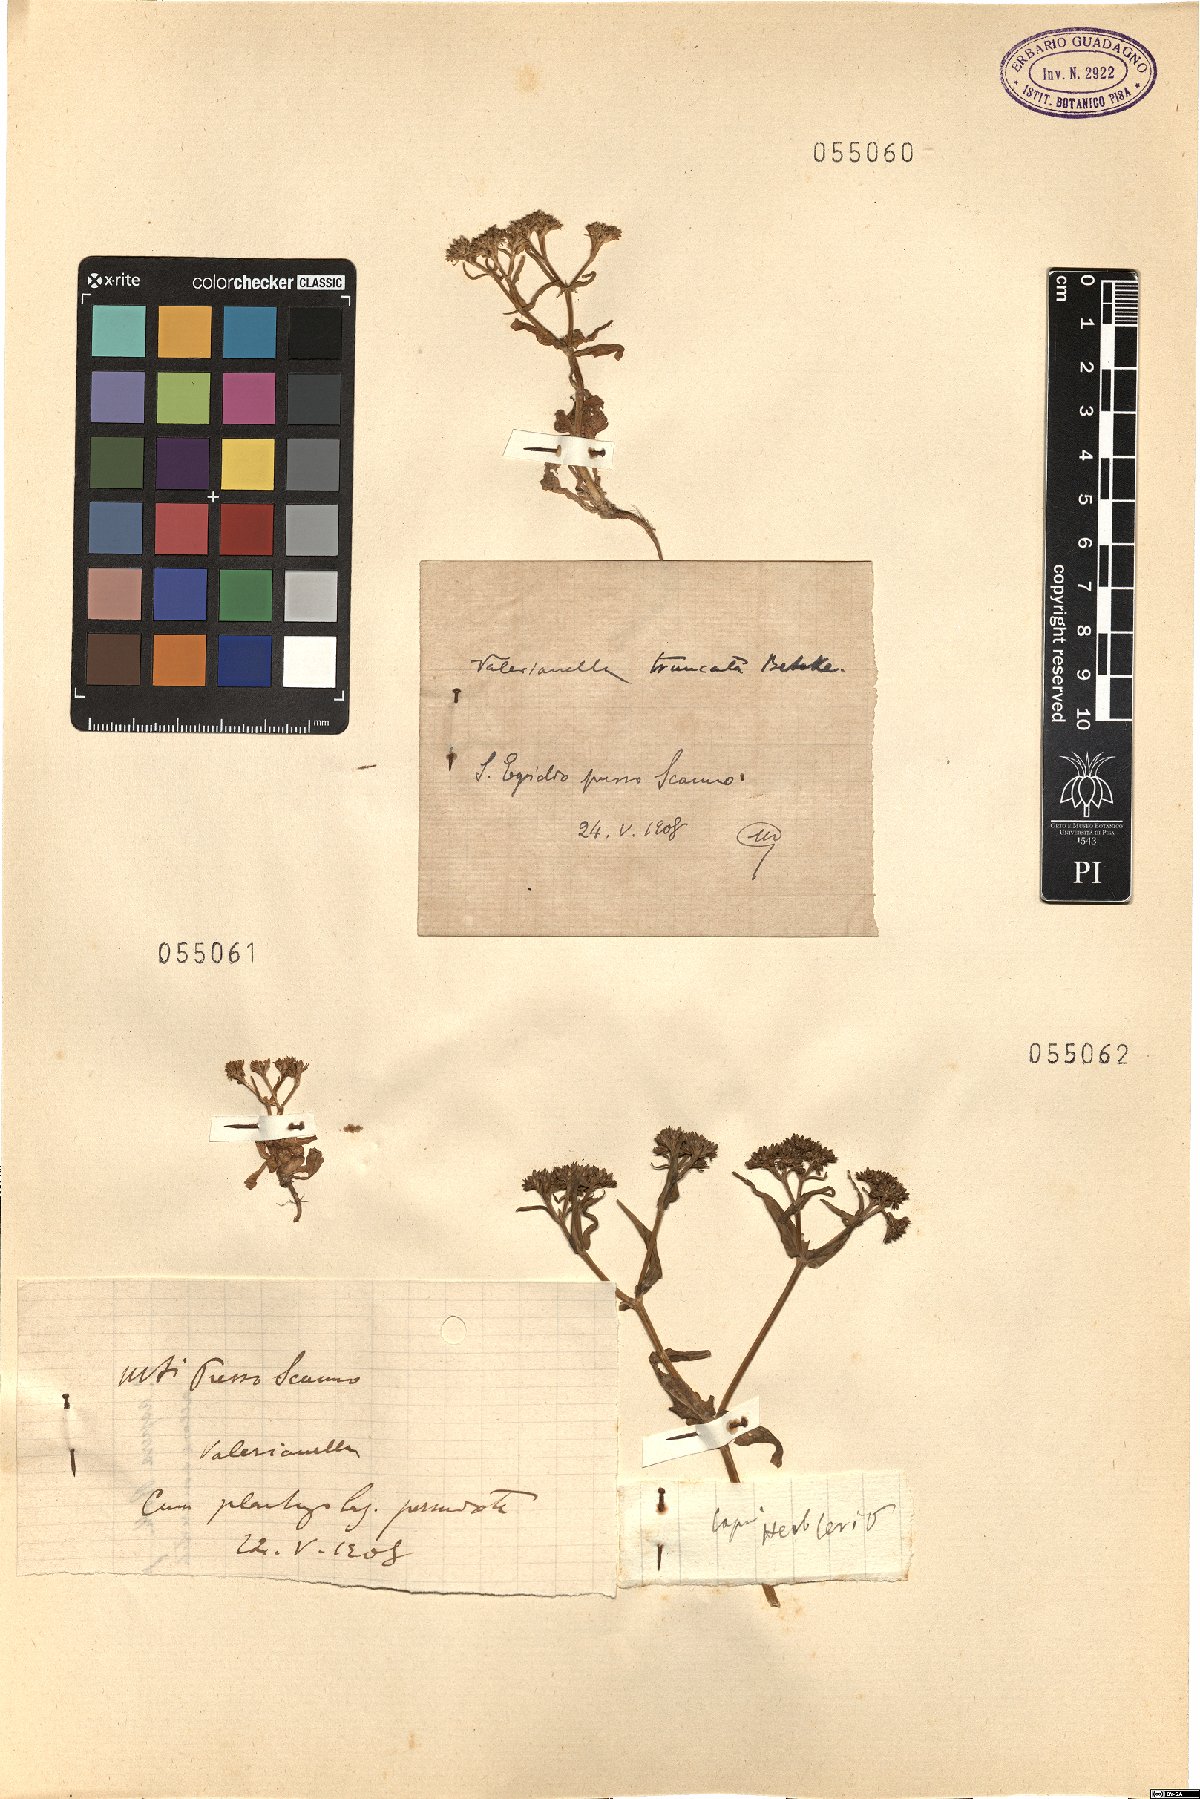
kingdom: Plantae
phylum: Tracheophyta
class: Magnoliopsida
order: Dipsacales
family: Caprifoliaceae
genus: Valerianella
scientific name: Valerianella eriocarpa
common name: Hairy-fruited cornsalad
